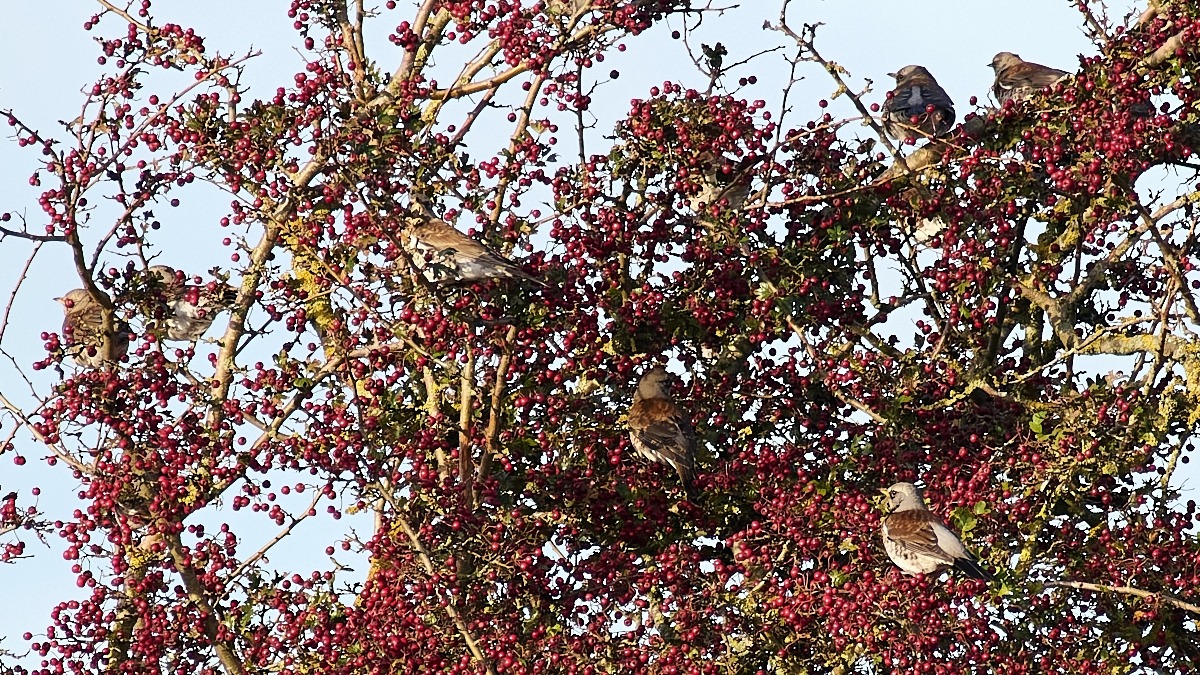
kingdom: Animalia
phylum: Chordata
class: Aves
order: Passeriformes
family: Turdidae
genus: Turdus
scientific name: Turdus pilaris
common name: Sjagger
